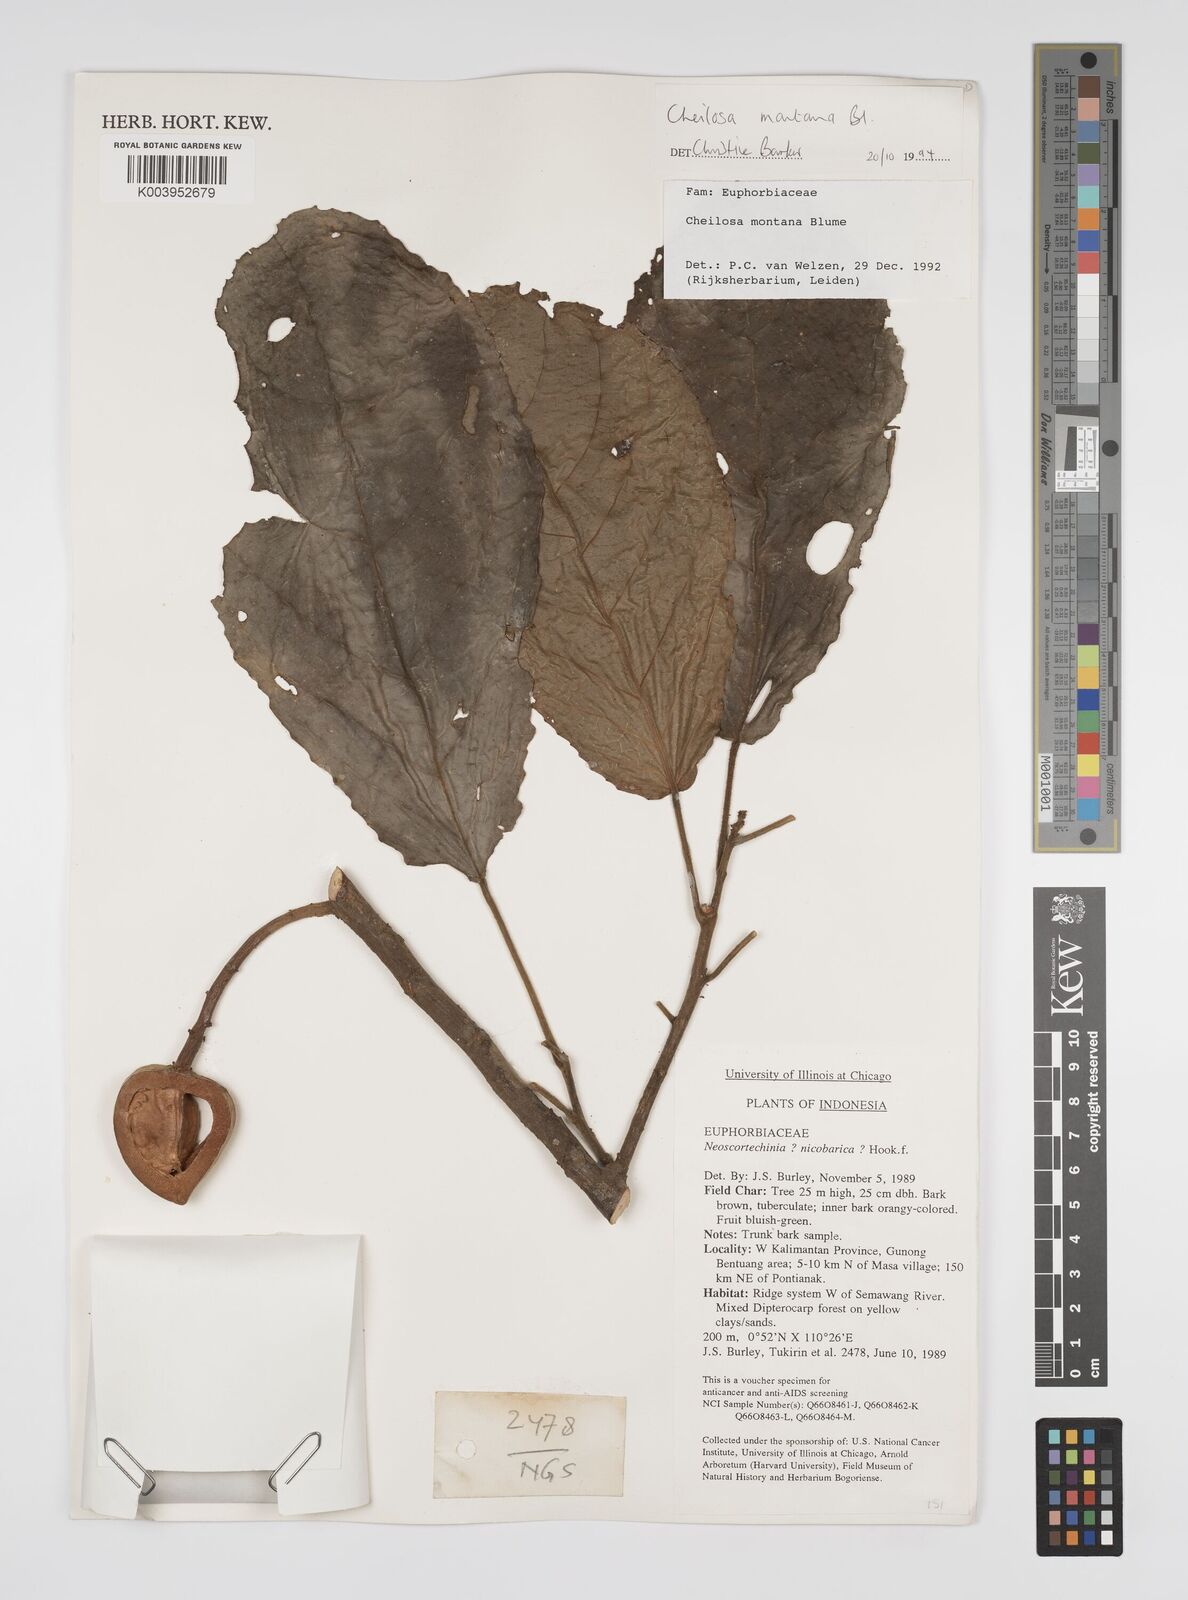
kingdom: Plantae
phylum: Tracheophyta
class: Magnoliopsida
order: Malpighiales
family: Euphorbiaceae
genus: Cheilosa
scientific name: Cheilosa montana
